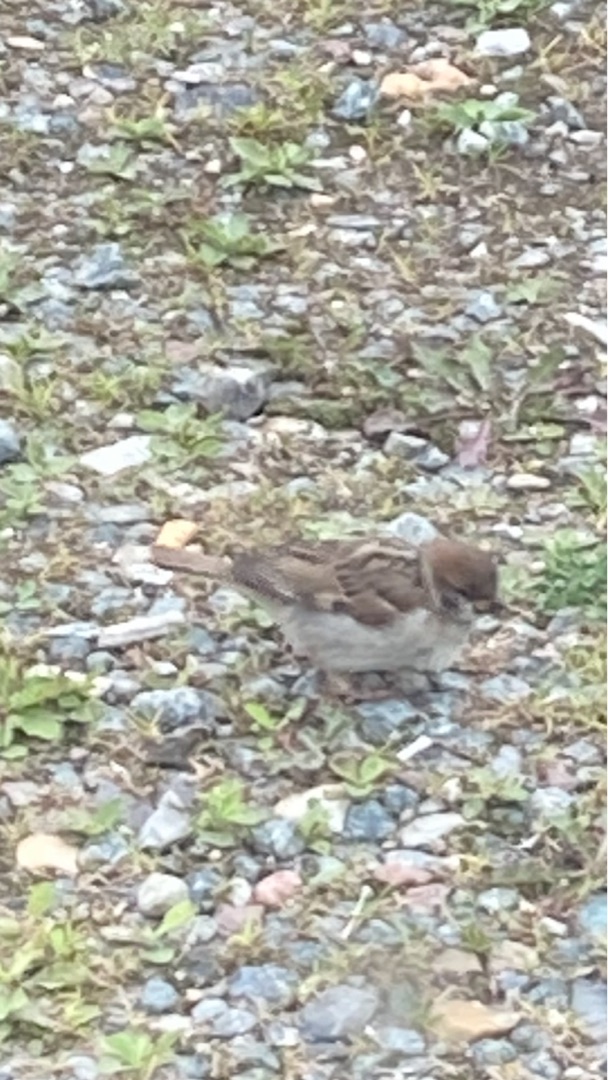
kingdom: Animalia
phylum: Chordata
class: Aves
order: Passeriformes
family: Passeridae
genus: Passer
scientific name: Passer montanus
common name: Skovspurv
